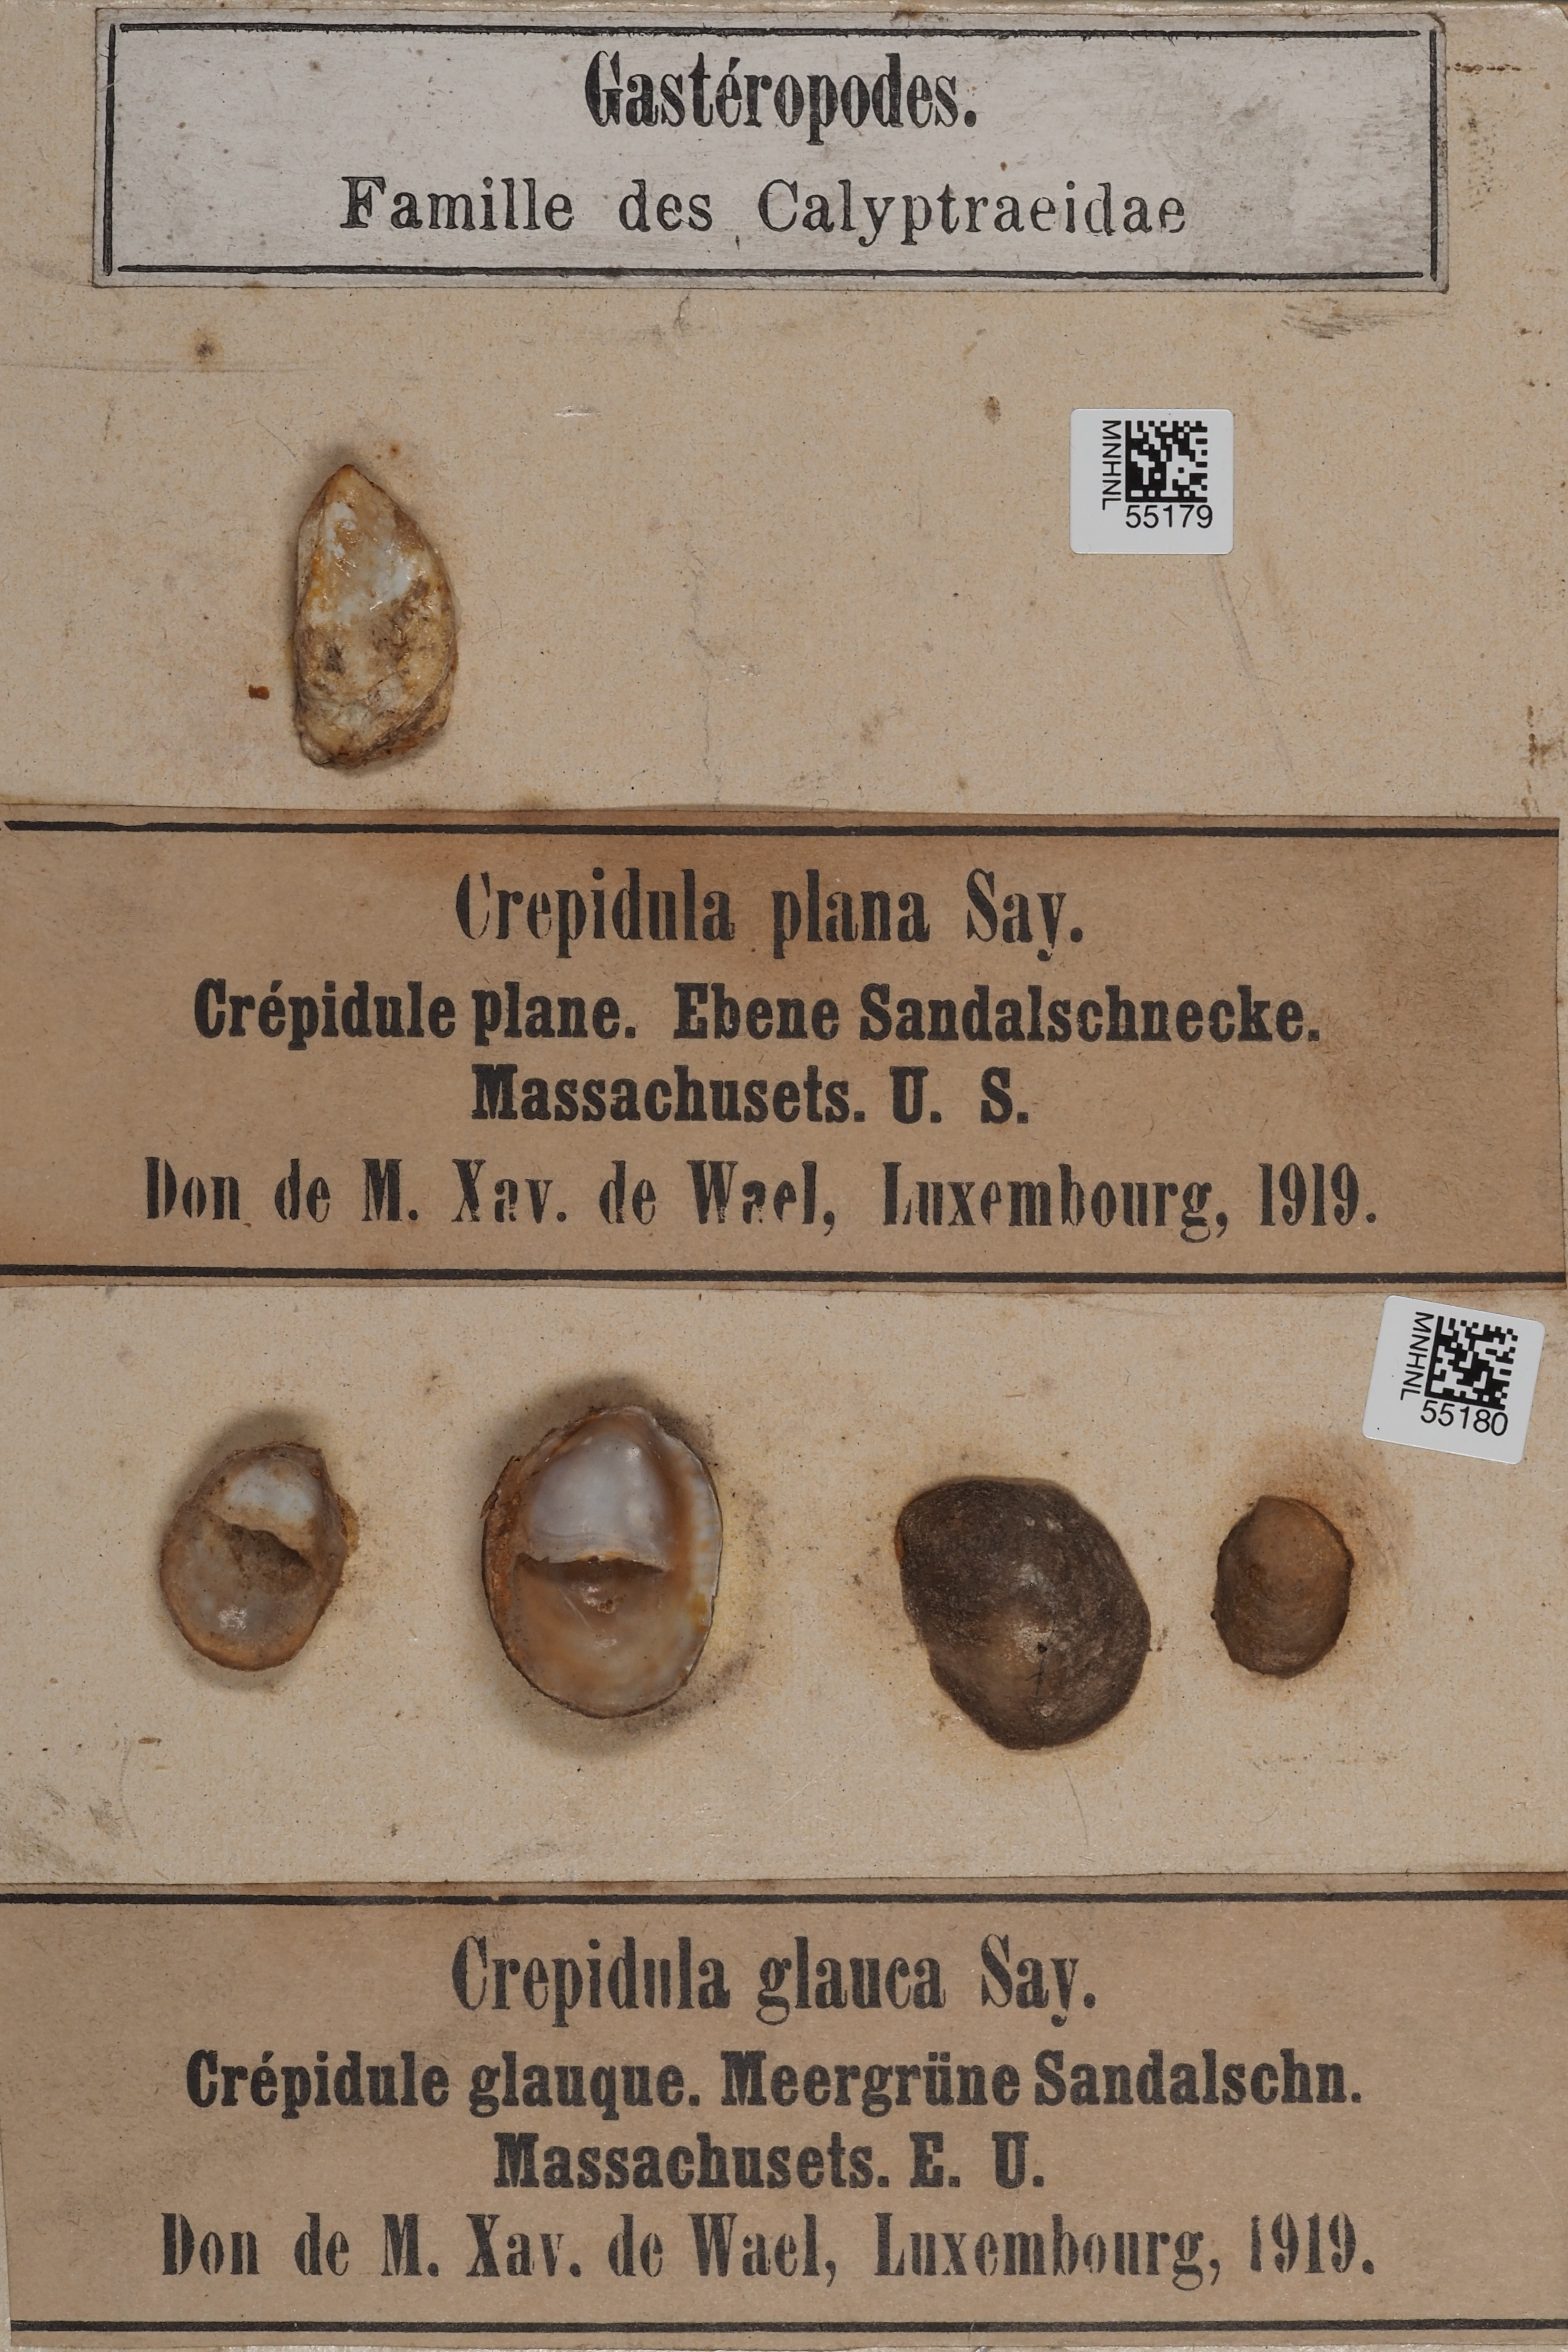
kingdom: Animalia
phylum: Mollusca
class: Gastropoda
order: Littorinimorpha
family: Calyptraeidae
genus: Crepidula
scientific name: Crepidula convexa
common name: Convex slippersnail
